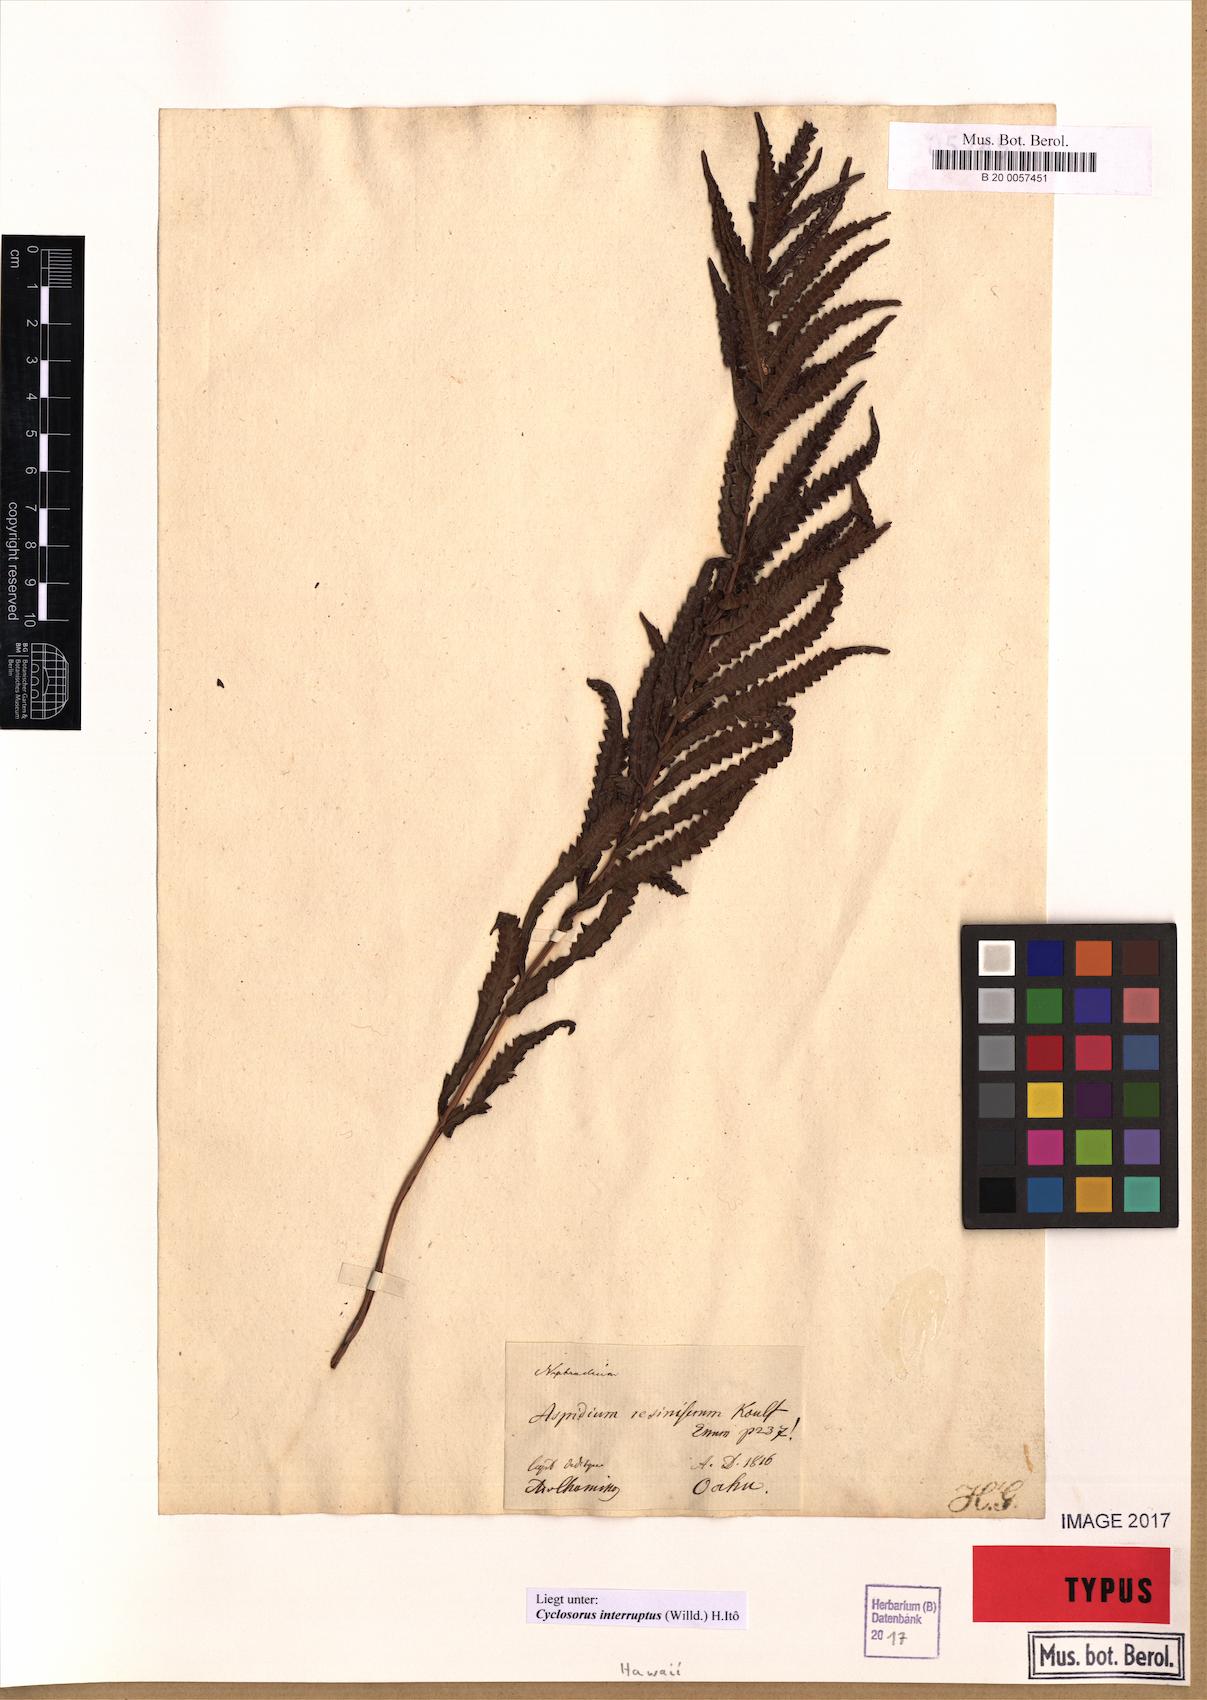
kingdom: Plantae
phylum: Tracheophyta
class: Polypodiopsida
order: Polypodiales
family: Thelypteridaceae
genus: Cyclosorus
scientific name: Cyclosorus interruptus
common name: Neke fern
